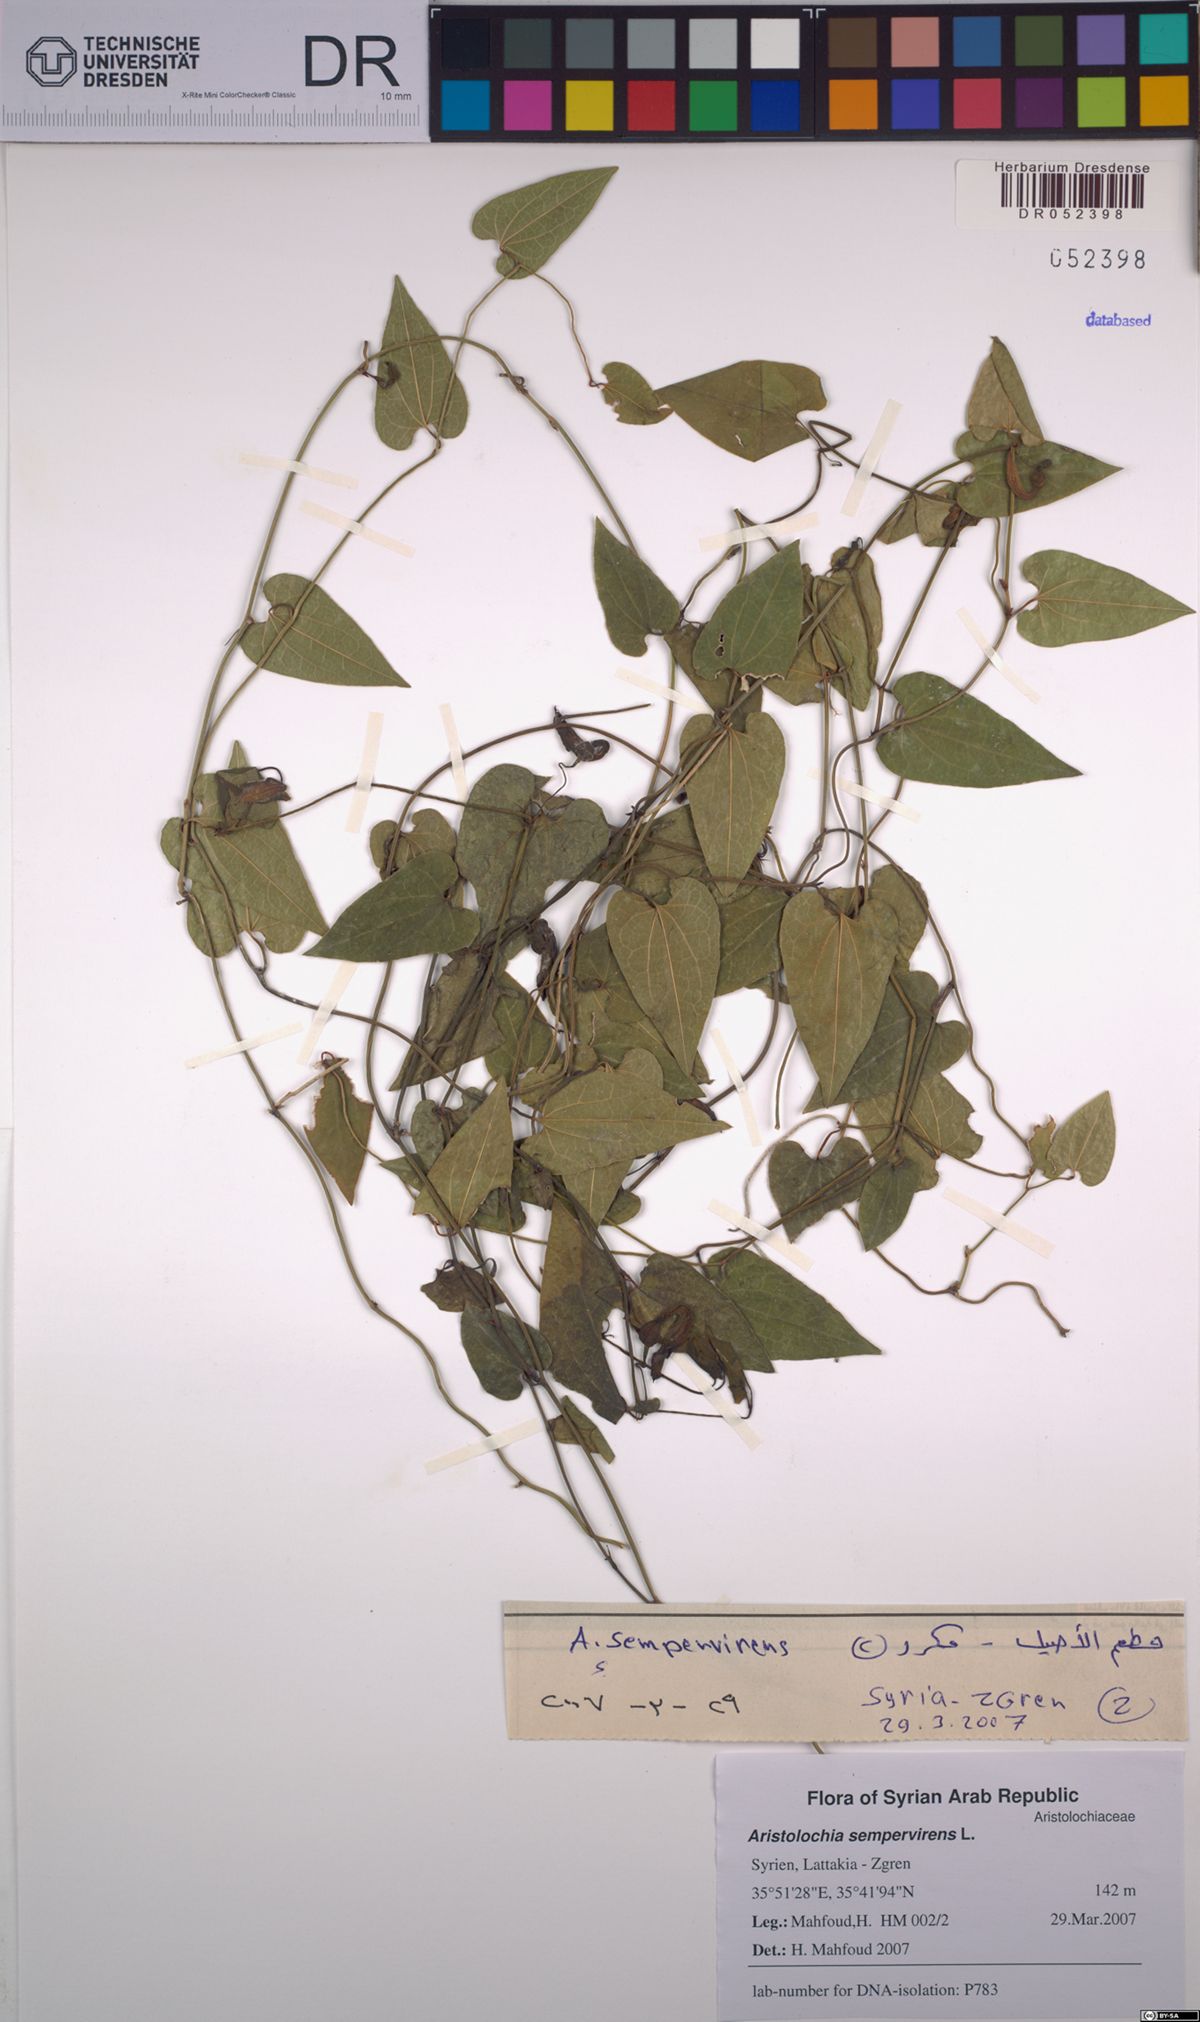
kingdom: Plantae
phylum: Tracheophyta
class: Magnoliopsida
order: Piperales
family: Aristolochiaceae
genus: Aristolochia
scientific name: Aristolochia sempervirens
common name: Long birthwort
